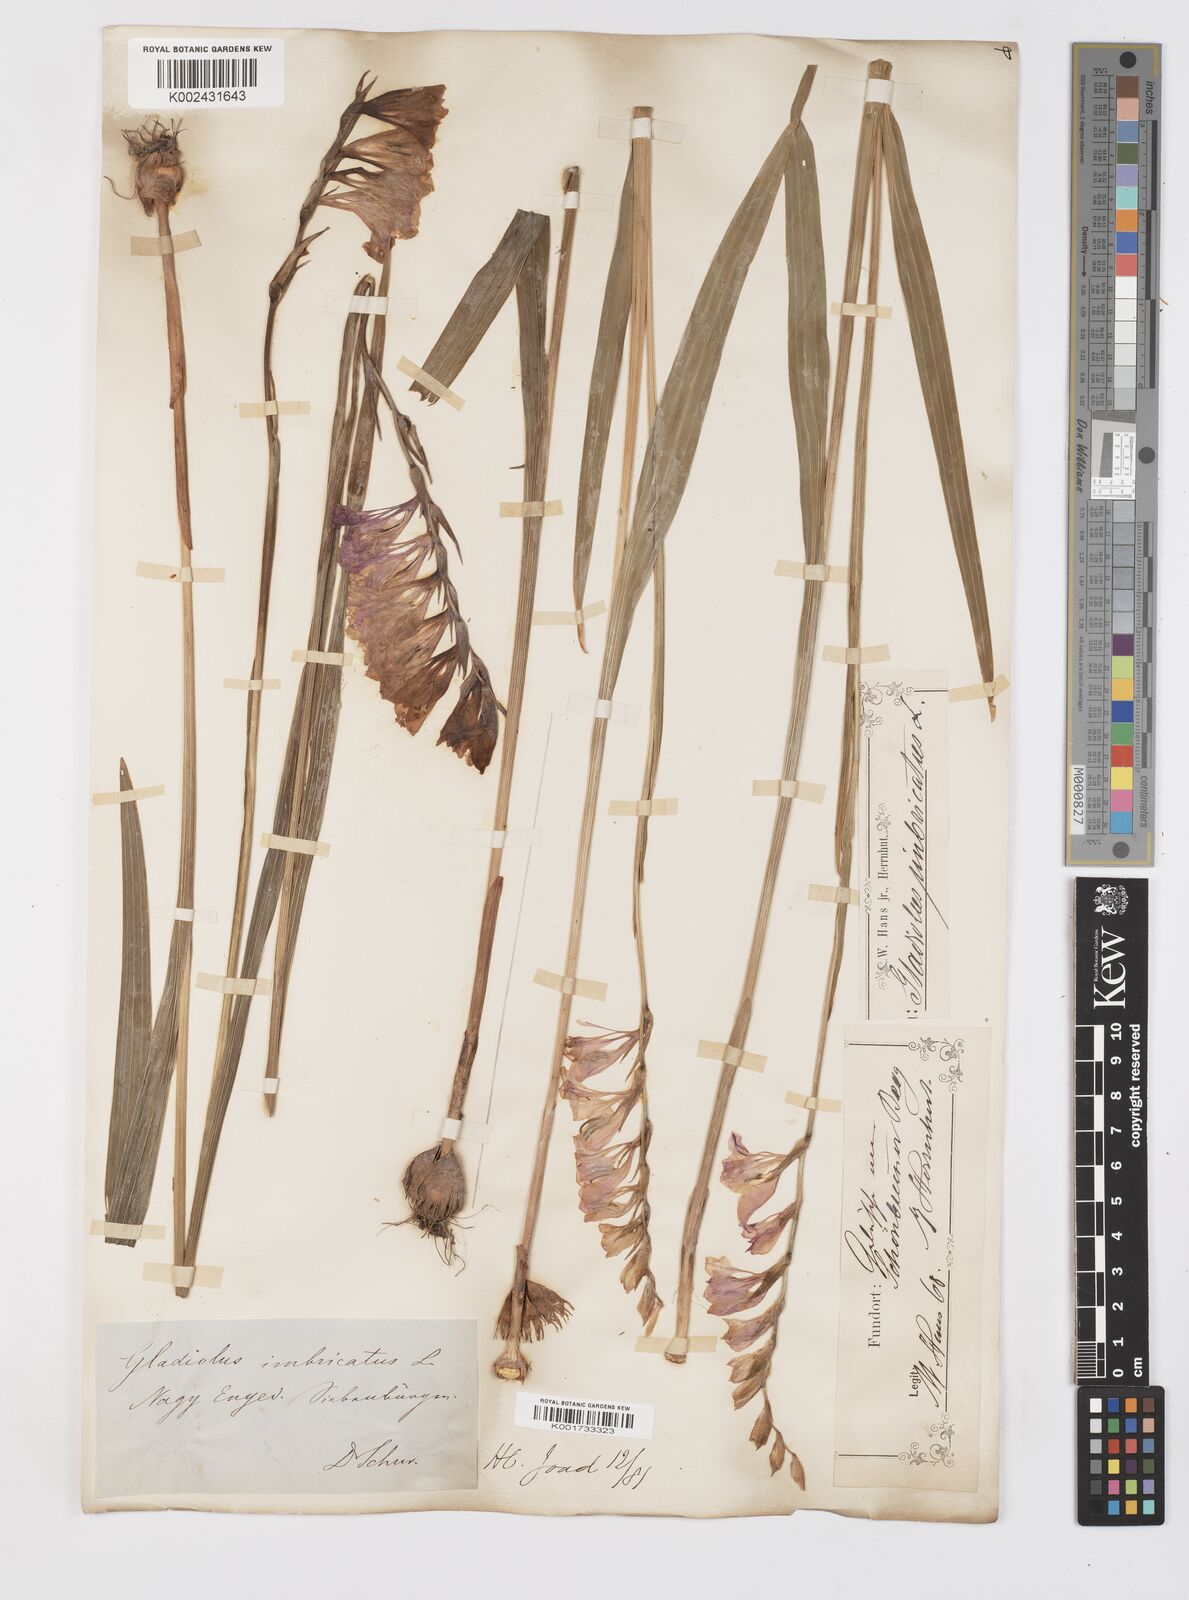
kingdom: Plantae
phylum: Tracheophyta
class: Liliopsida
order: Asparagales
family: Iridaceae
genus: Gladiolus
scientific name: Gladiolus imbricatus
